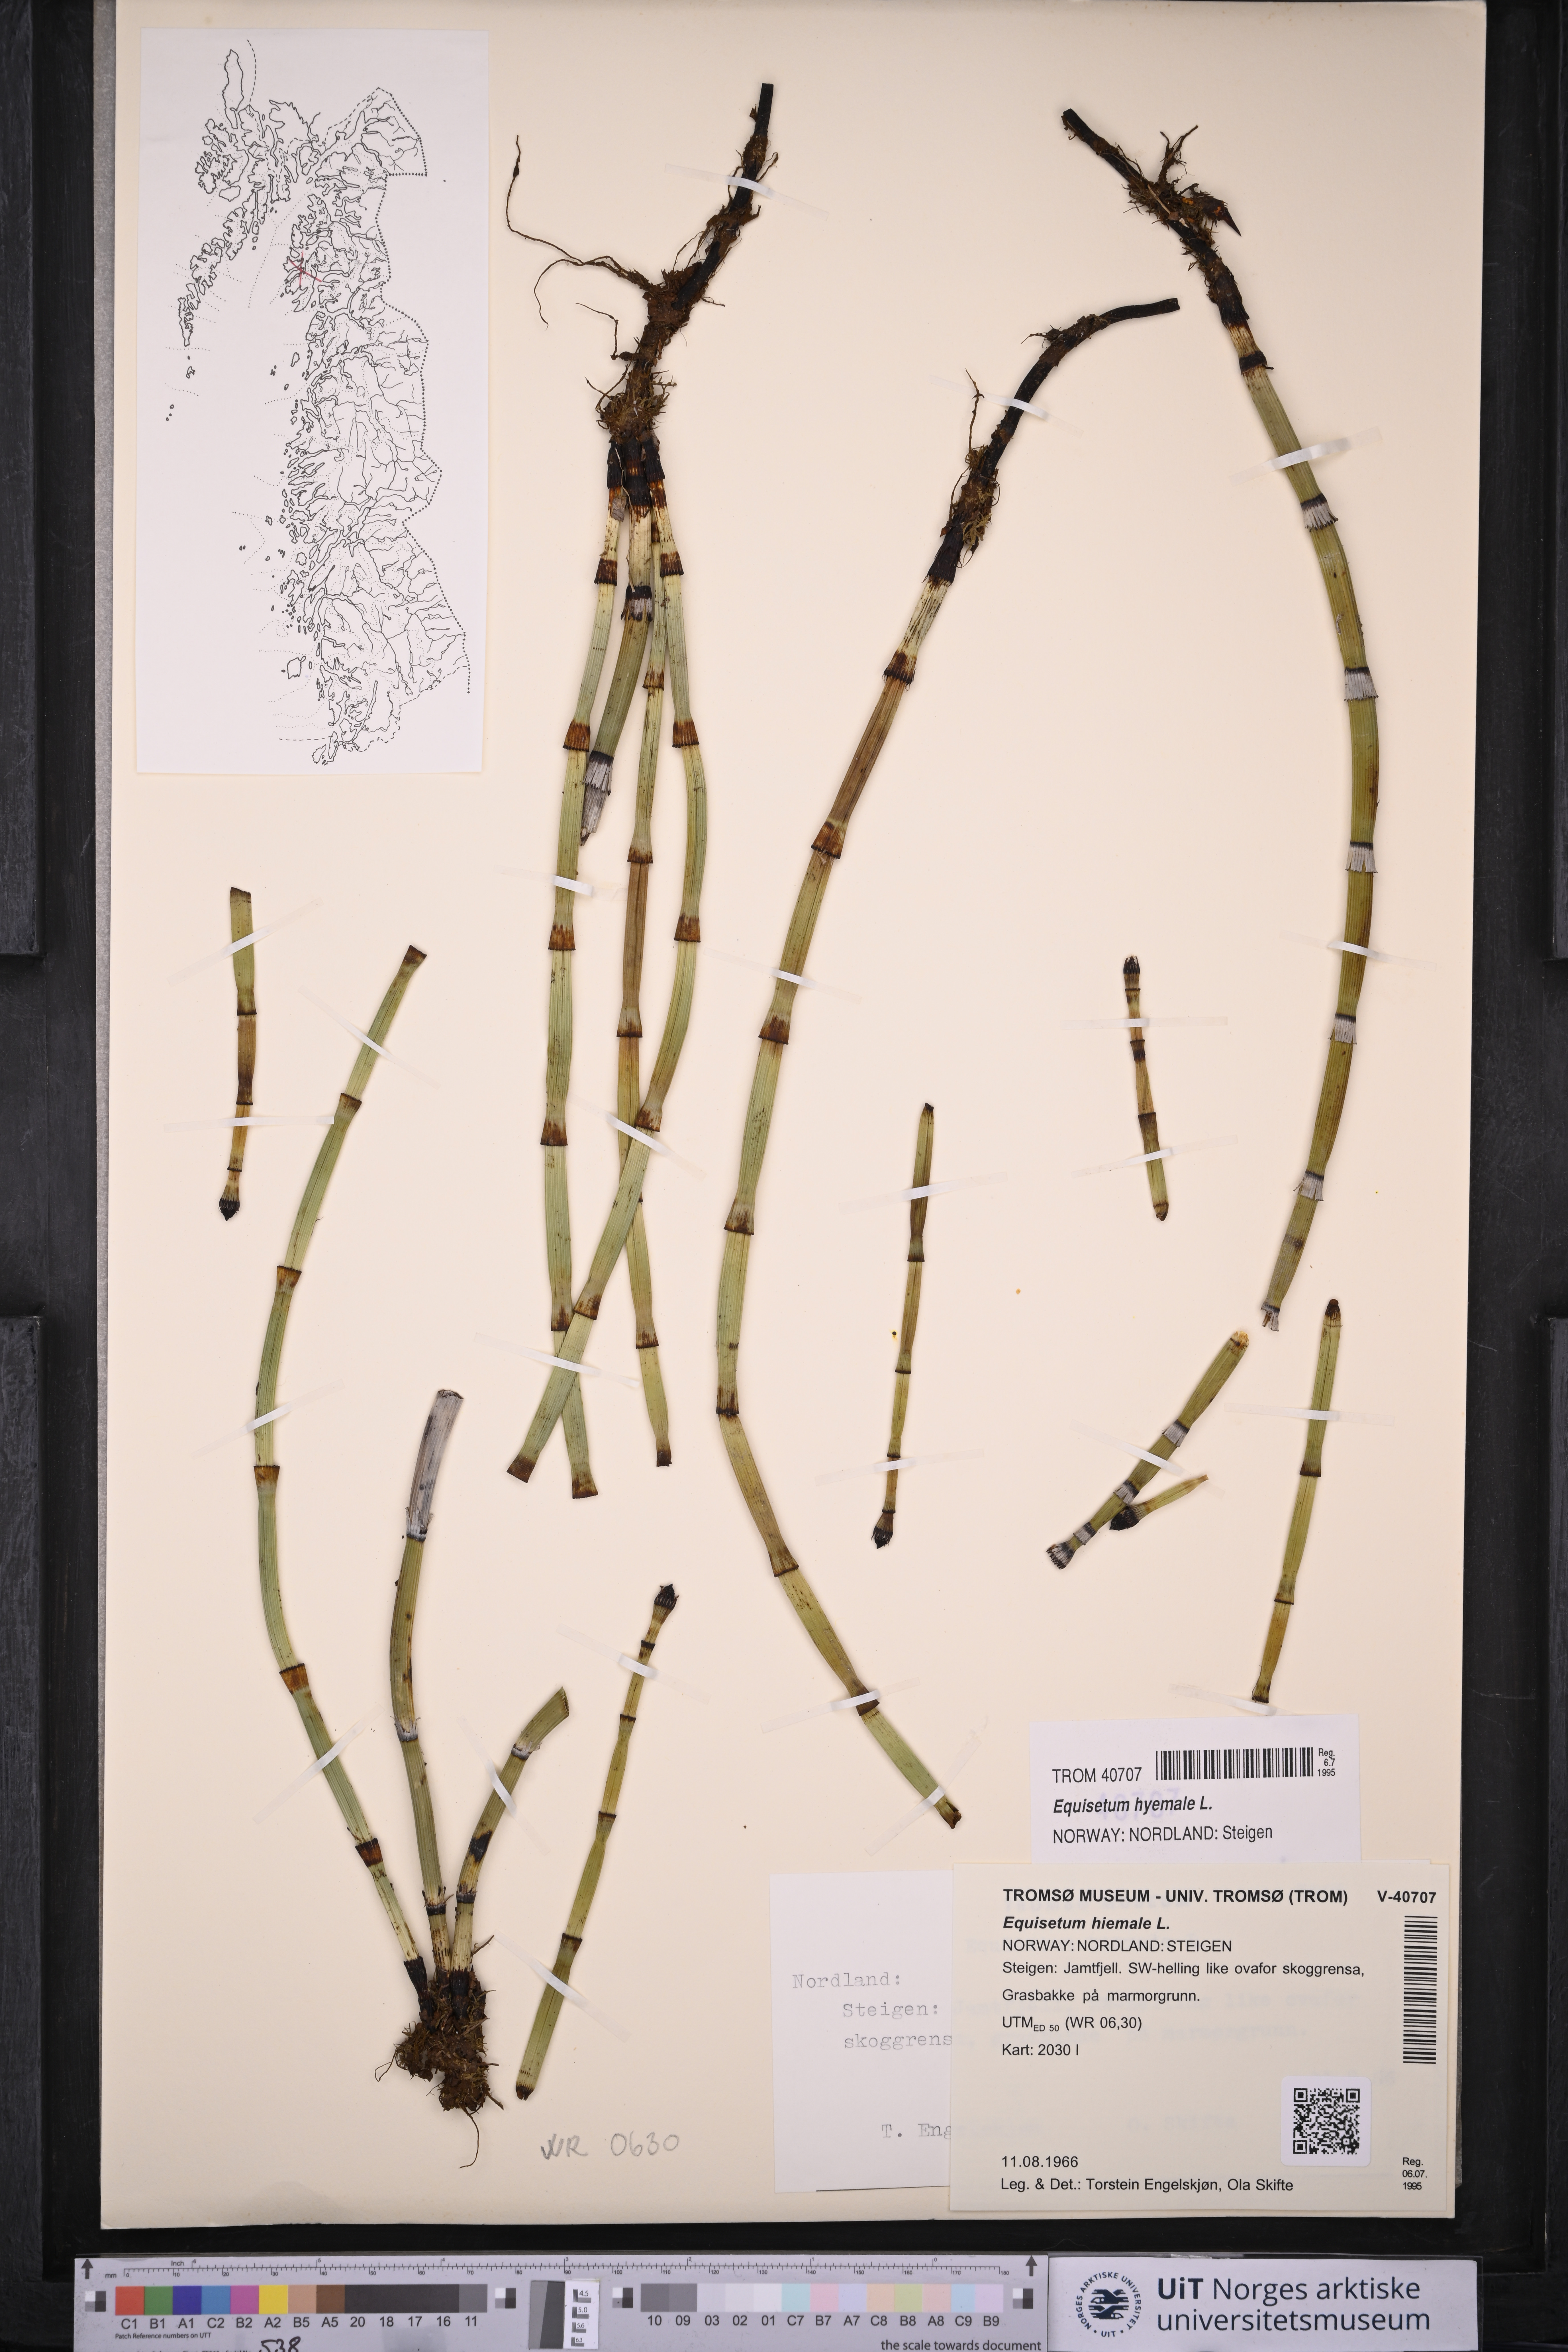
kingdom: Plantae
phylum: Tracheophyta
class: Polypodiopsida
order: Equisetales
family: Equisetaceae
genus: Equisetum
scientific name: Equisetum hyemale
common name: Rough horsetail
